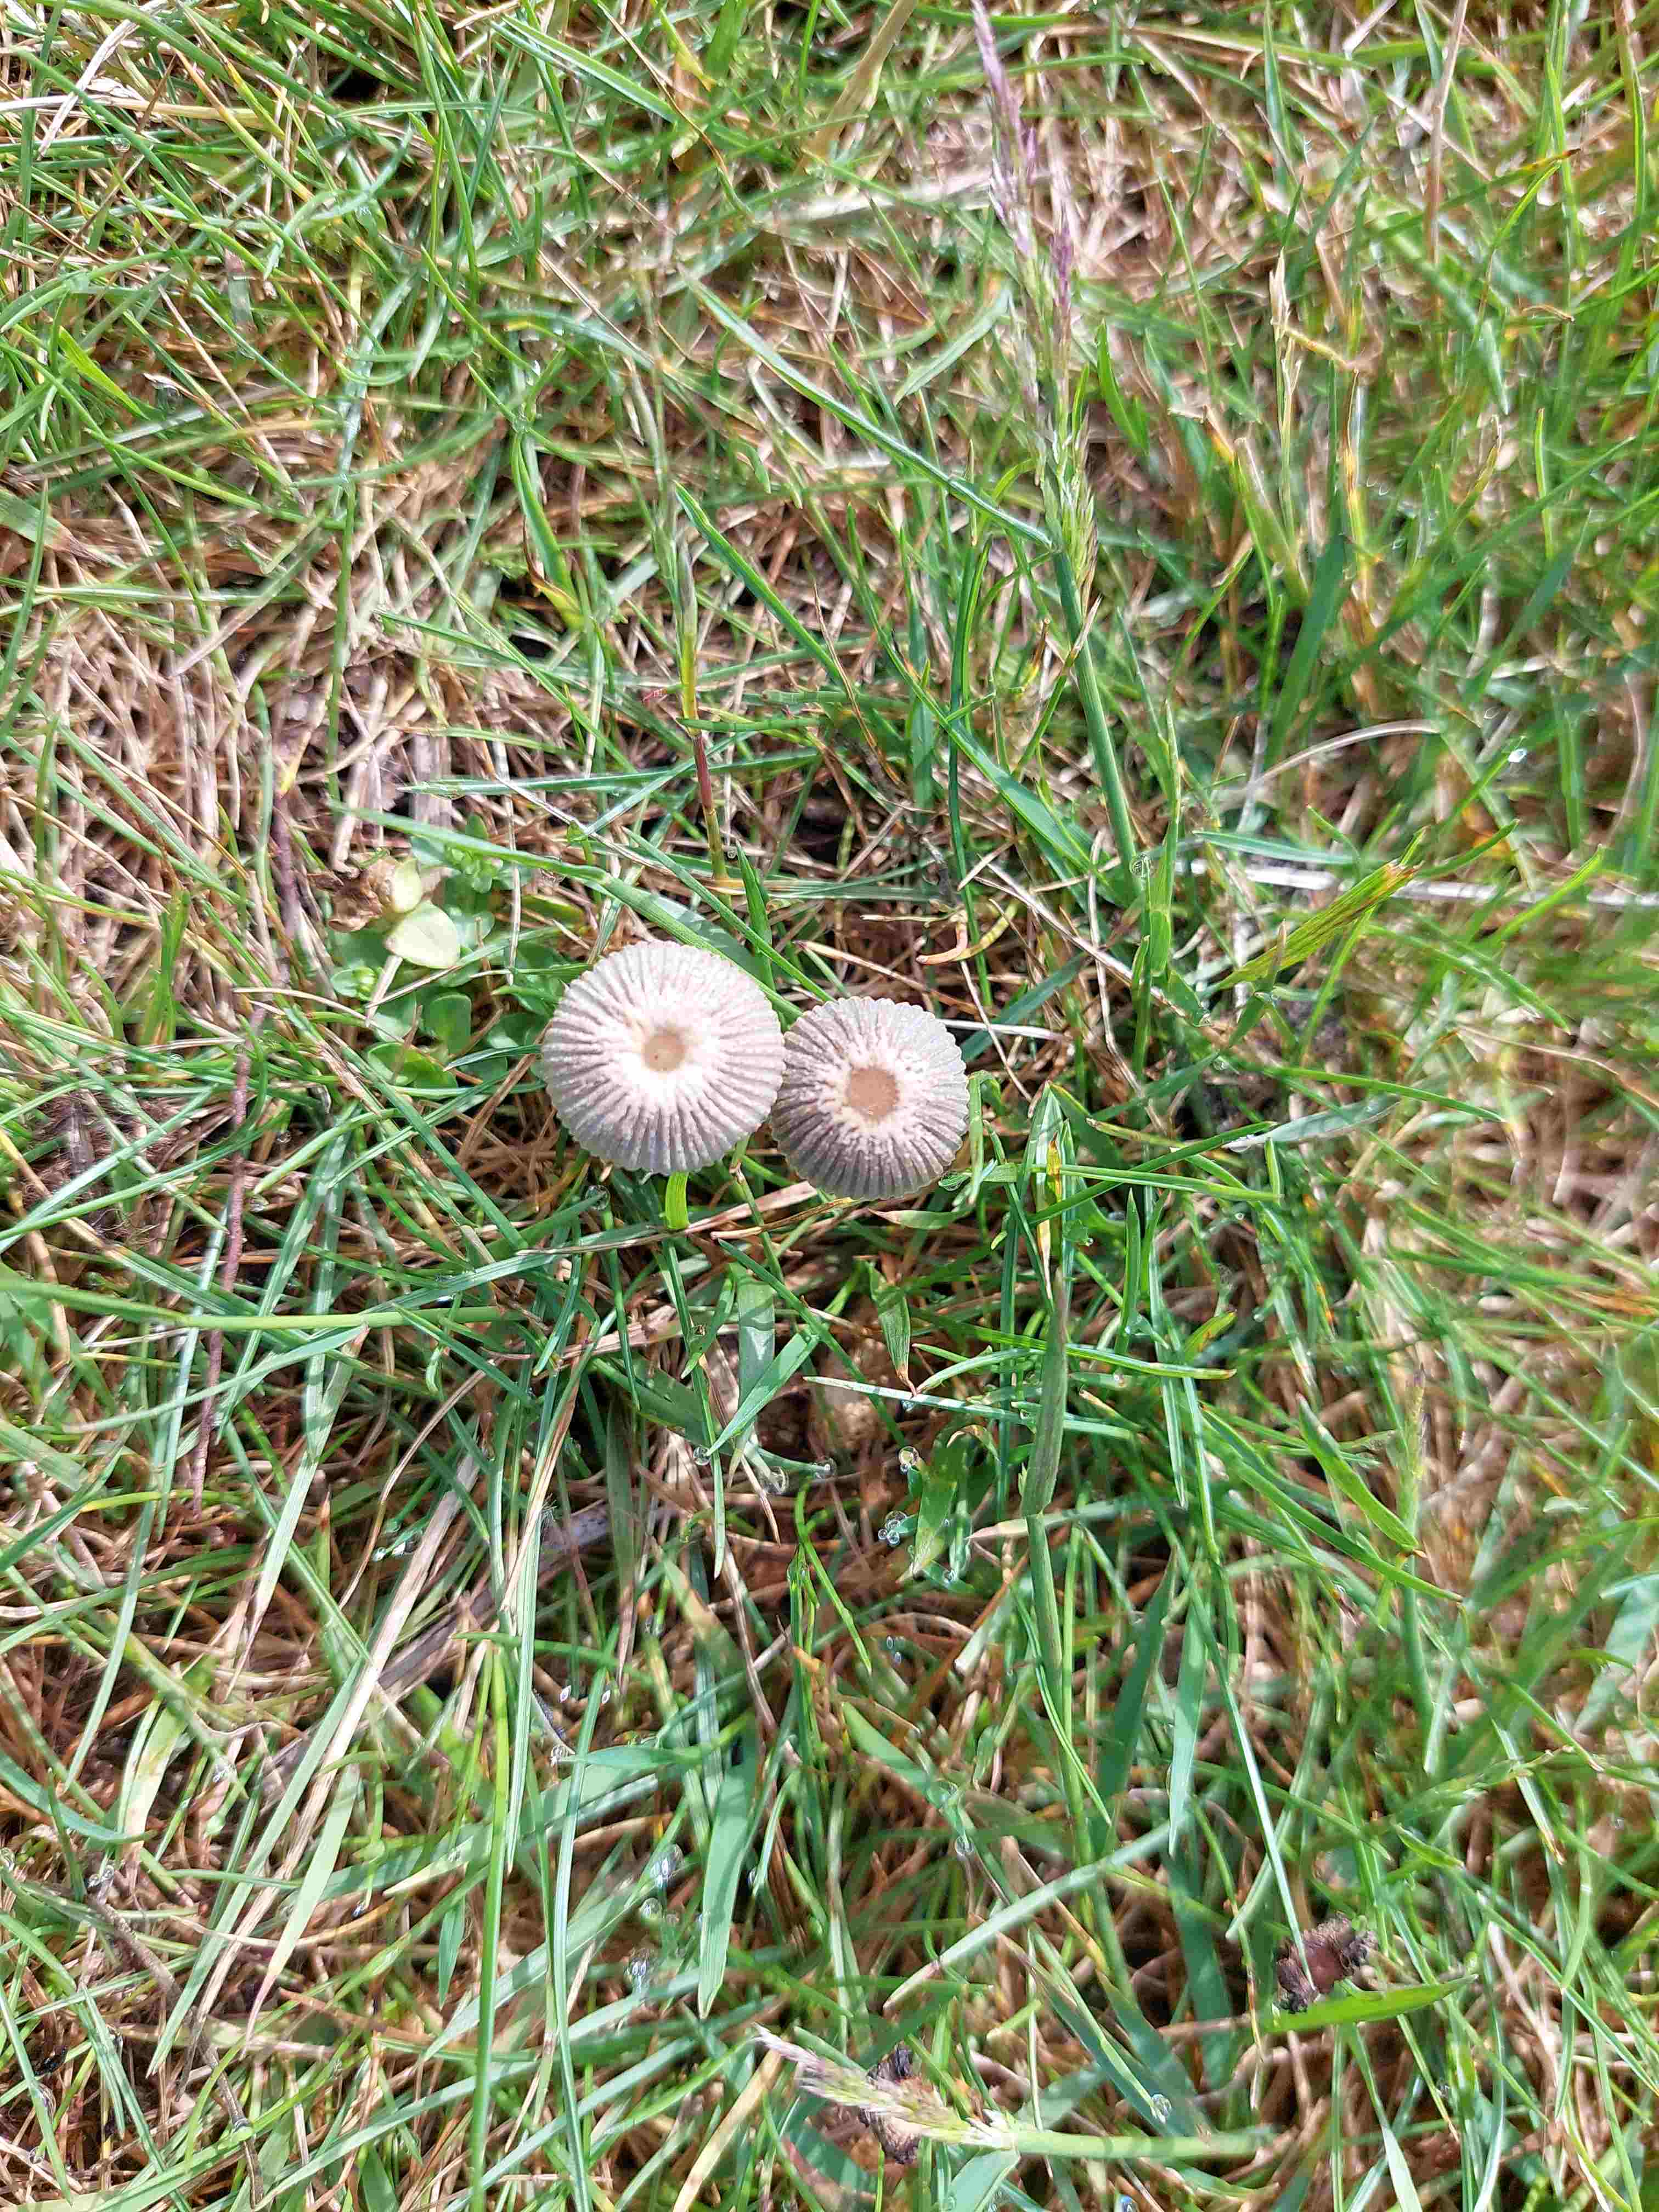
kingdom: Fungi
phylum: Basidiomycota
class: Agaricomycetes
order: Agaricales
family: Psathyrellaceae
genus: Parasola
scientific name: Parasola
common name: hjulhat
